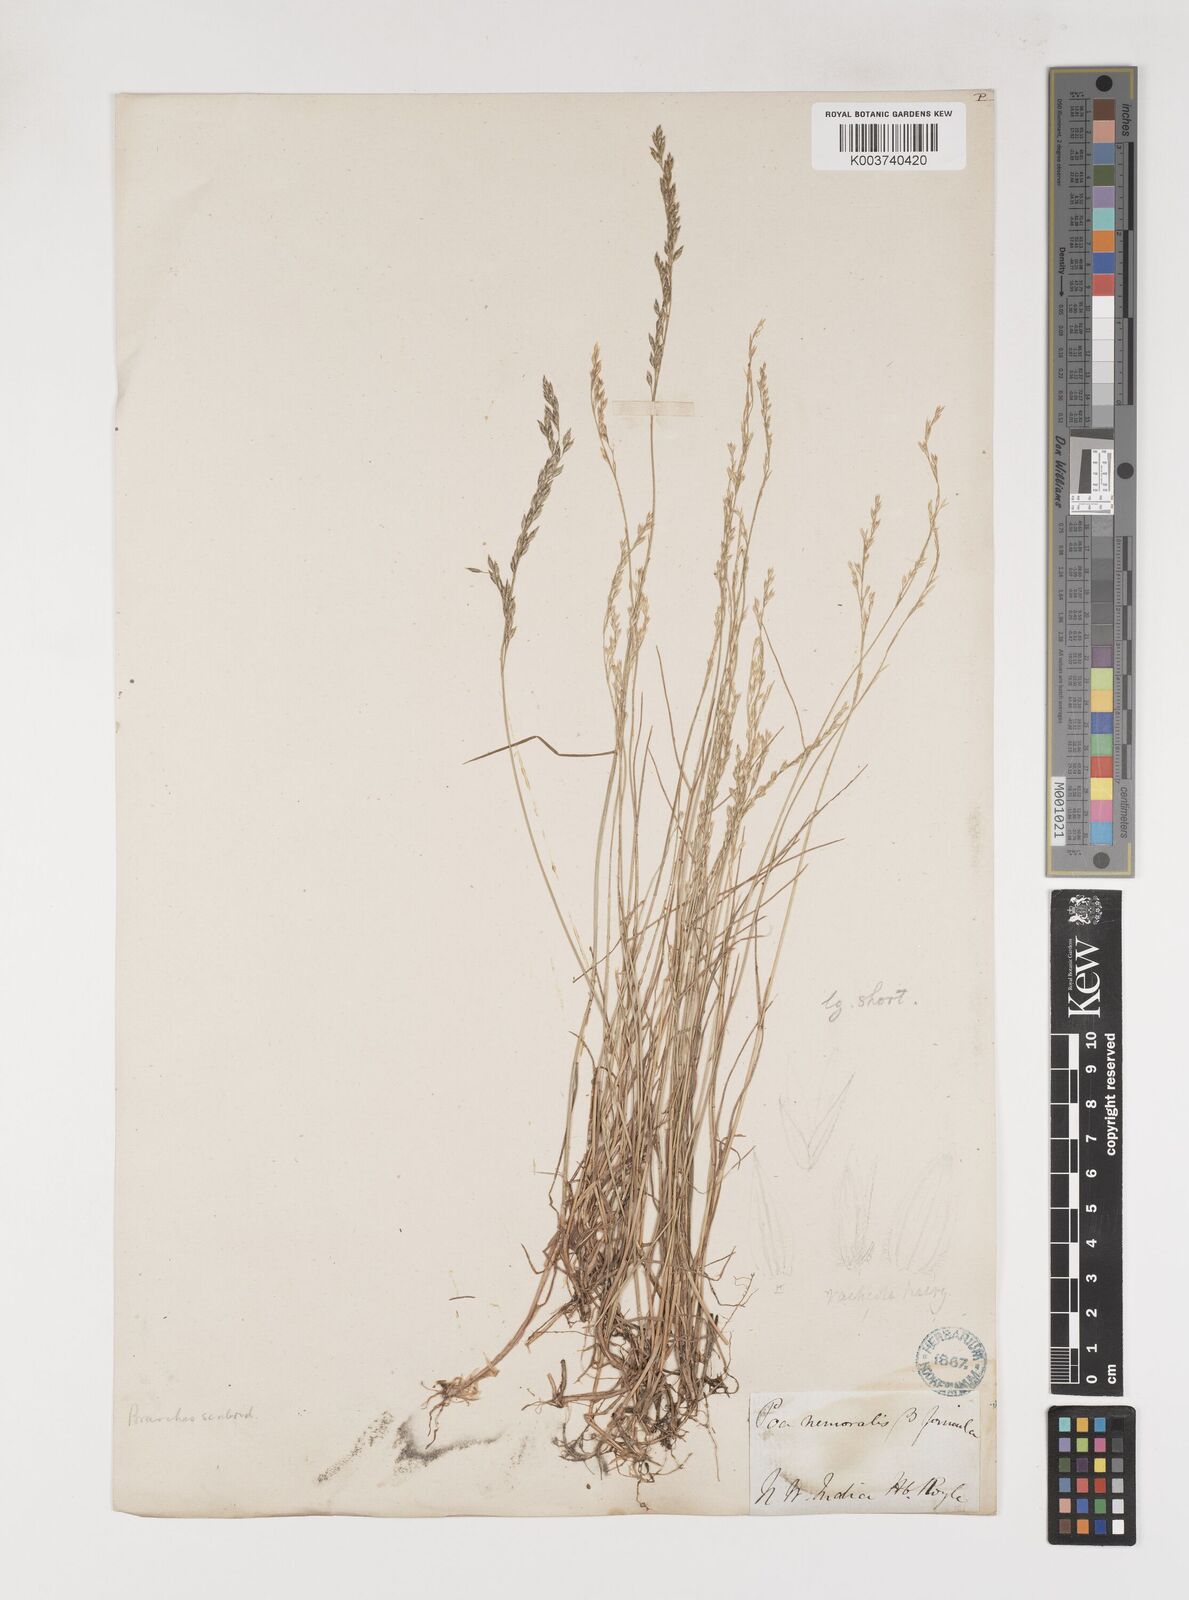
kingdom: Plantae
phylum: Tracheophyta
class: Liliopsida
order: Poales
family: Poaceae
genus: Poa
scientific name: Poa nemoralis
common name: Wood bluegrass
